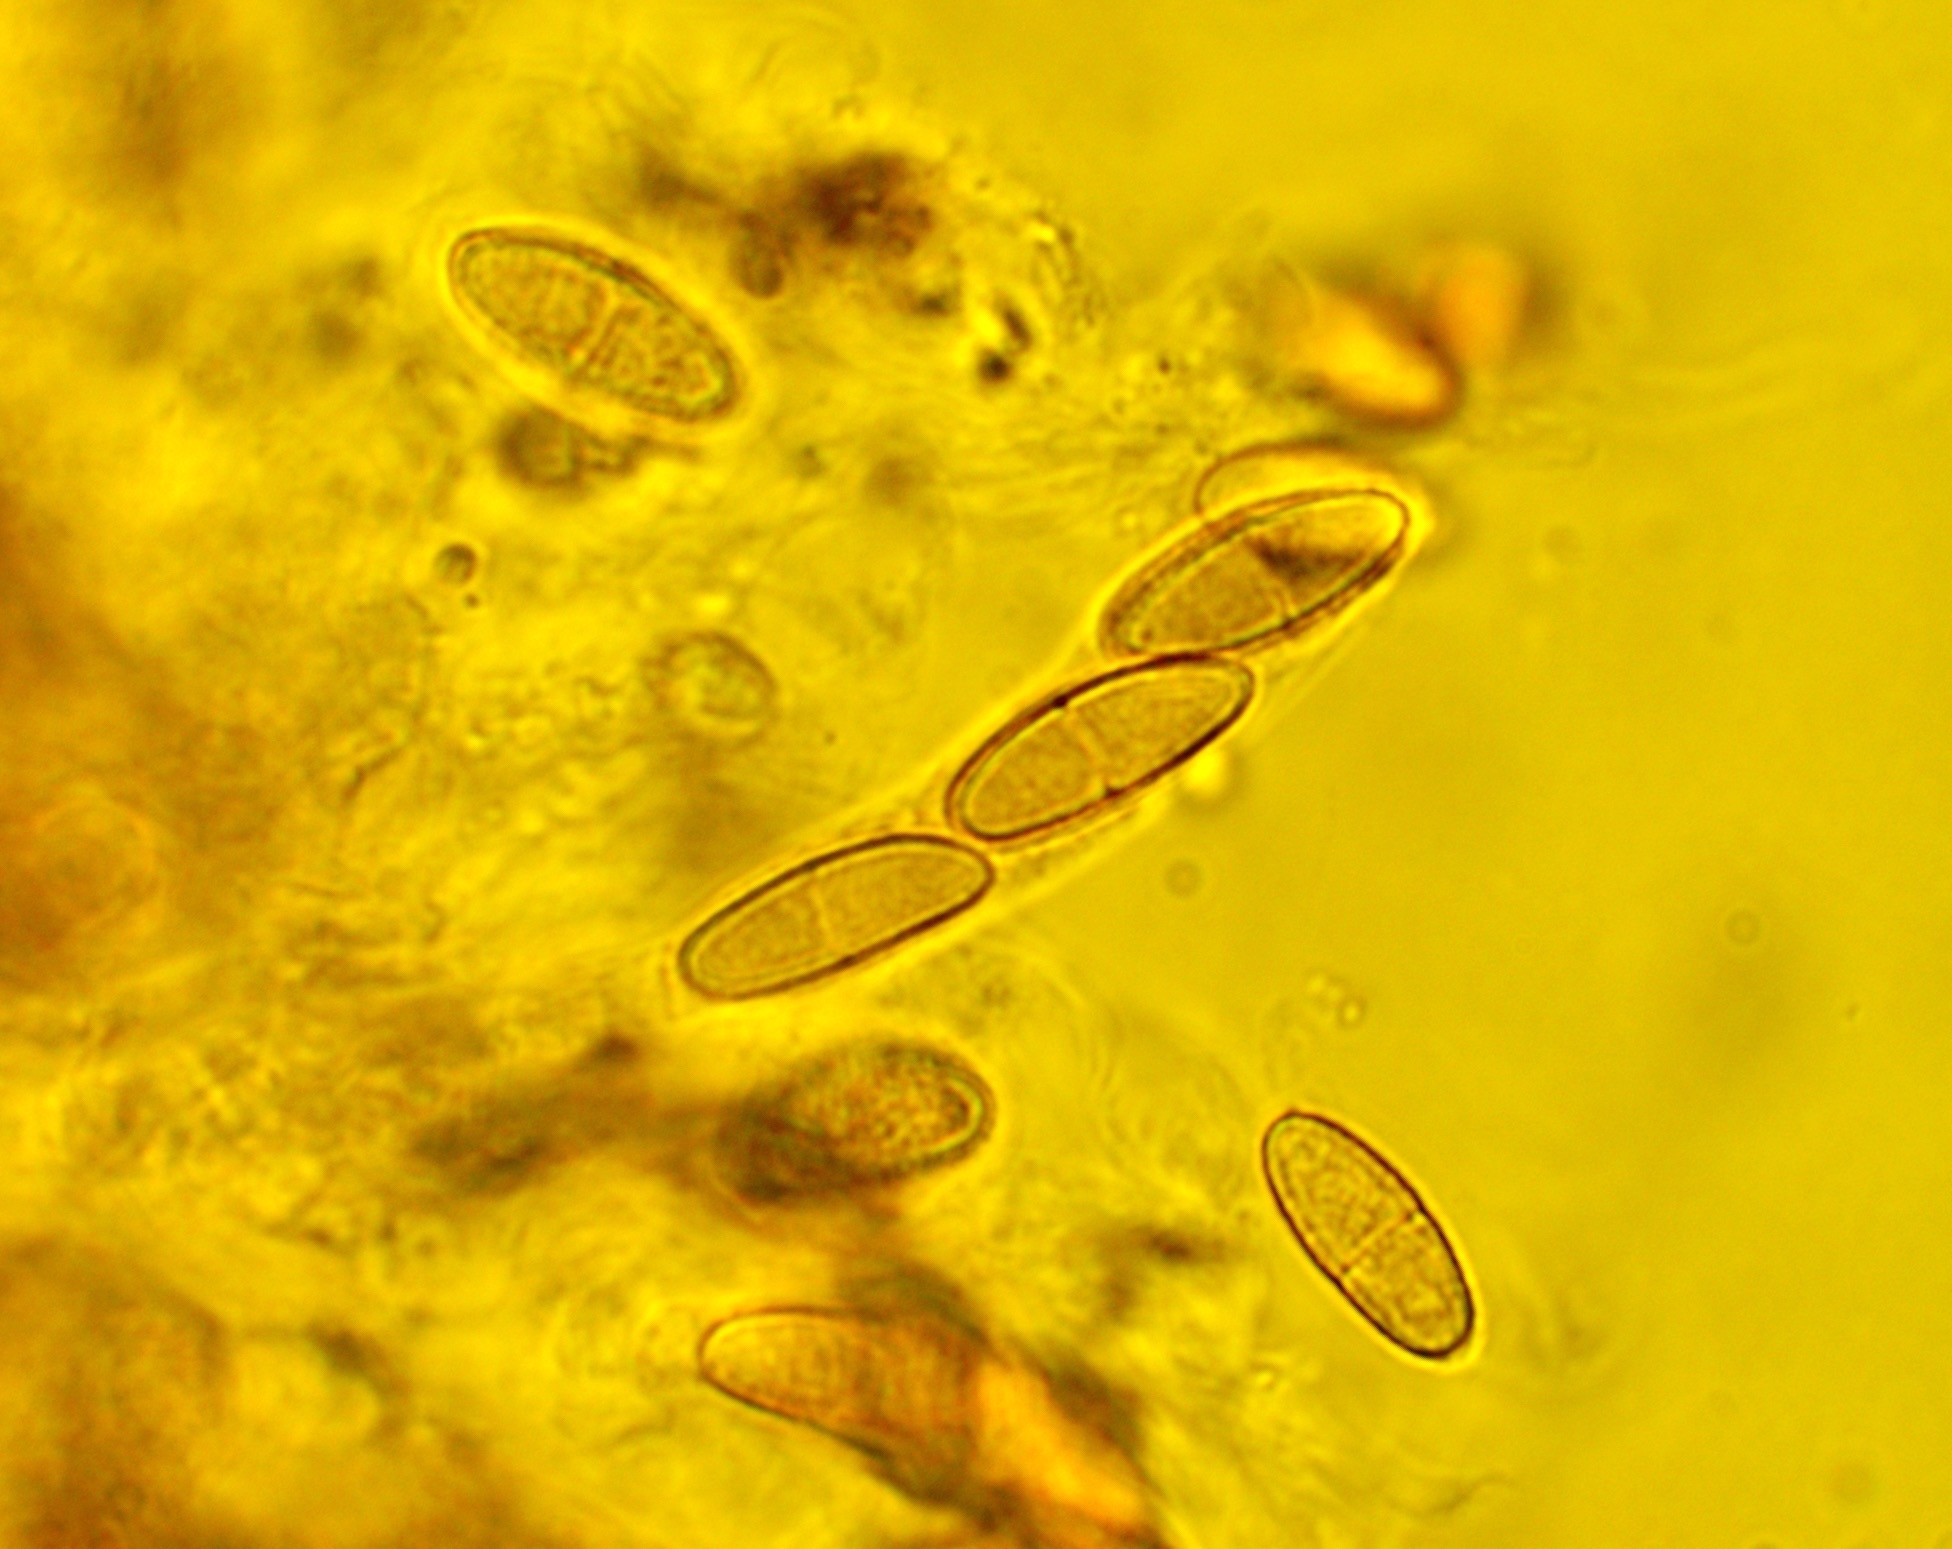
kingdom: Fungi
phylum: Ascomycota
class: Sordariomycetes
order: Hypocreales
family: Nectriaceae
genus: Neonectria
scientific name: Neonectria coccinea
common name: bøgebark-cinnobersvamp
